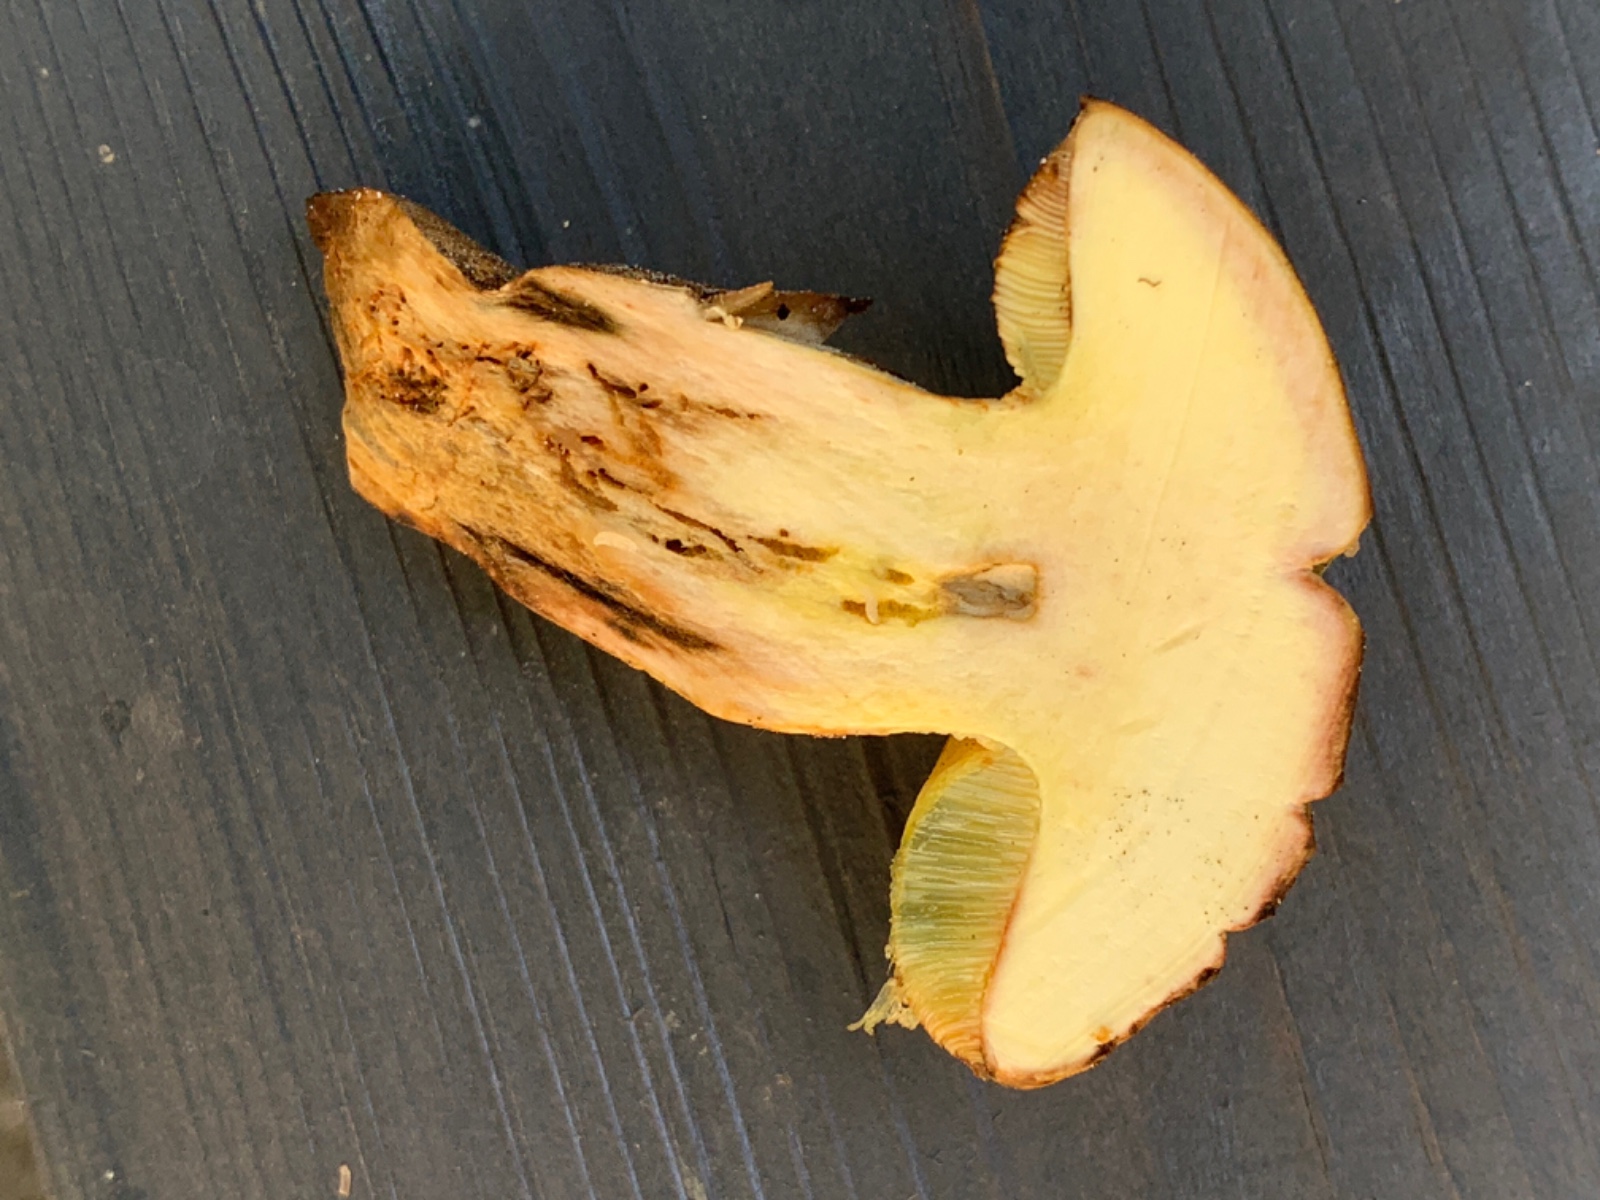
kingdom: Fungi
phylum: Basidiomycota
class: Agaricomycetes
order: Boletales
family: Boletaceae
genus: Butyriboletus
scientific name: Butyriboletus appendiculatus
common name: tenstokket rørhat
